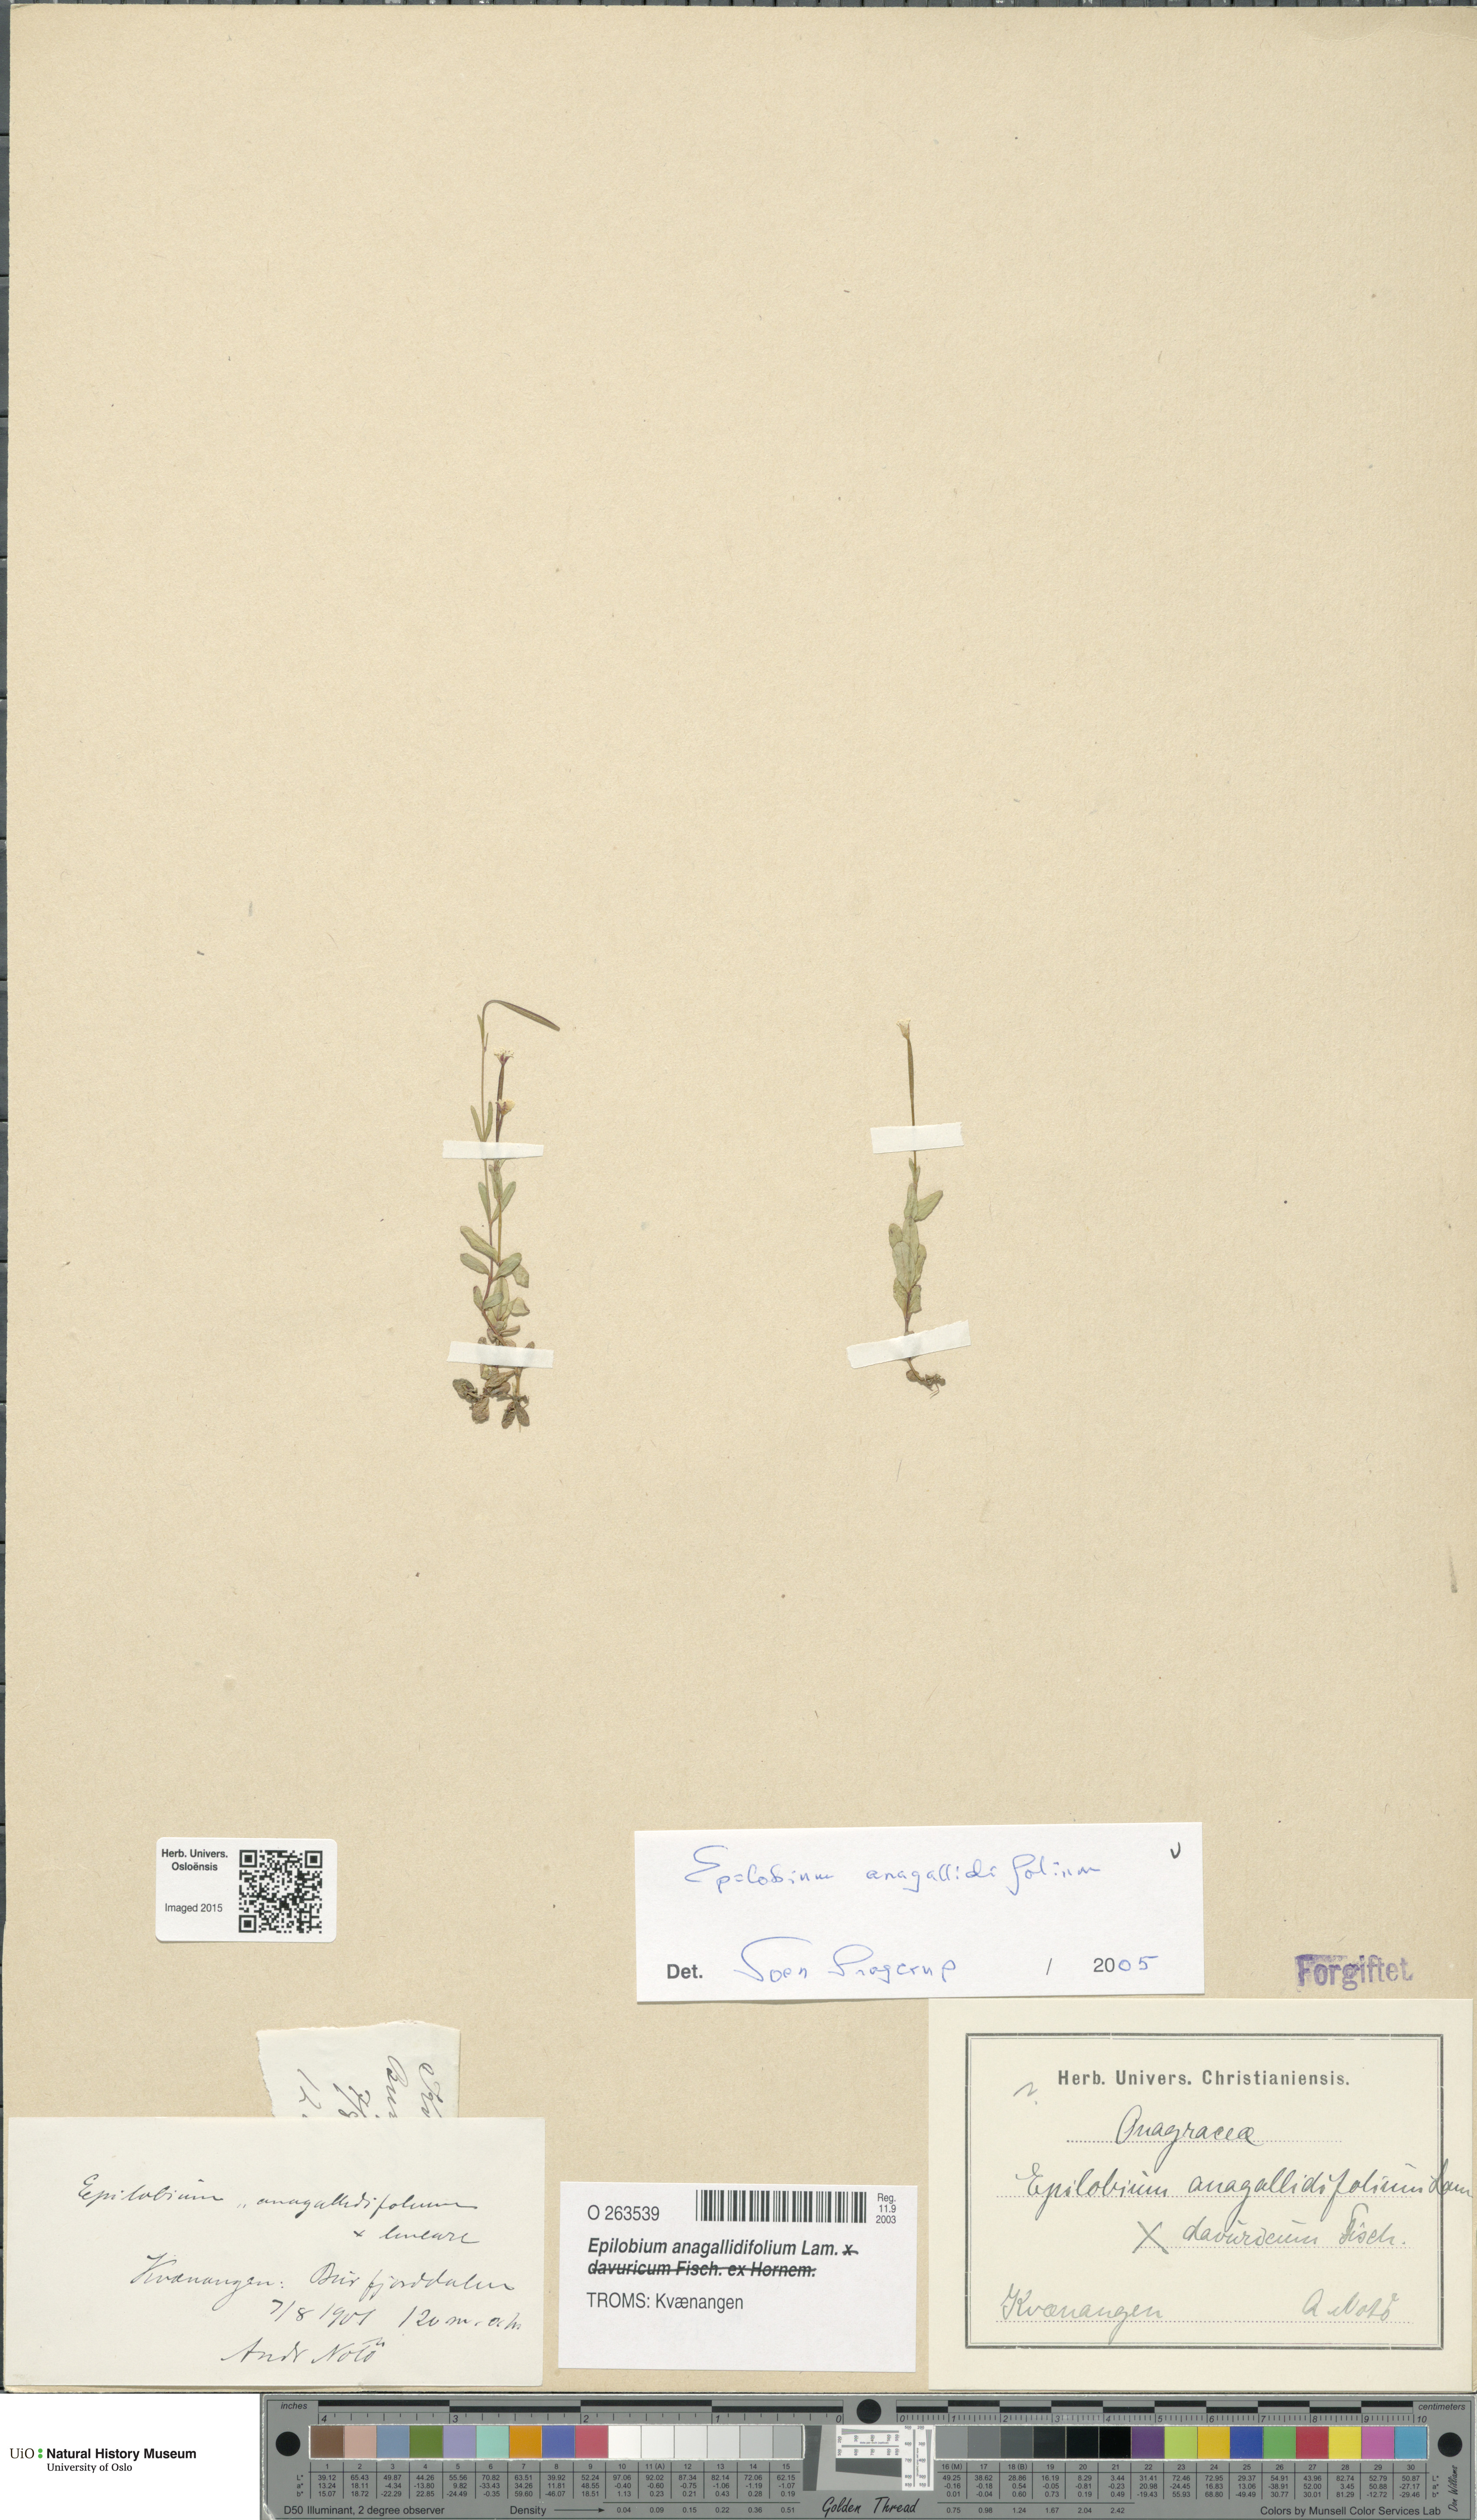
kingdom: Plantae
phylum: Tracheophyta
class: Magnoliopsida
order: Myrtales
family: Onagraceae
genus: Epilobium
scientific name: Epilobium anagallidifolium
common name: Alpine willowherb
